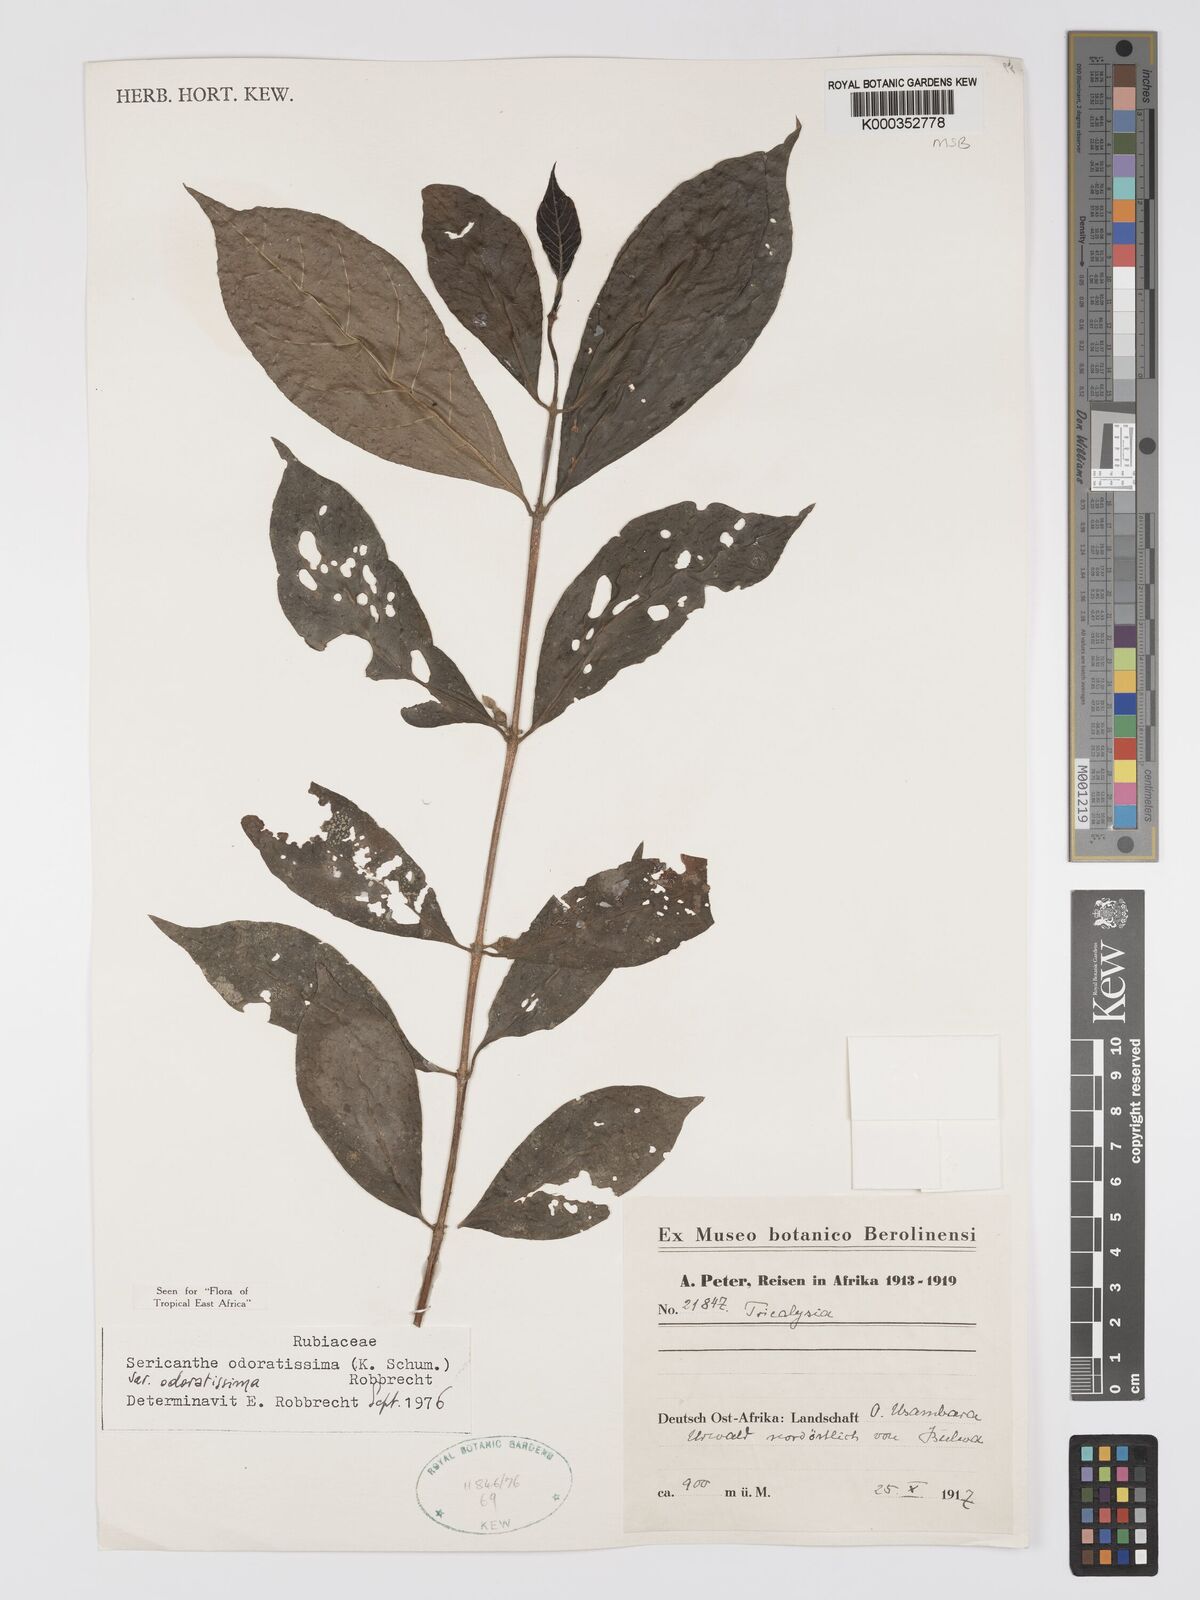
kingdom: Plantae
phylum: Tracheophyta
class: Magnoliopsida
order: Gentianales
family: Rubiaceae
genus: Sericanthe
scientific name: Sericanthe odoratissima
